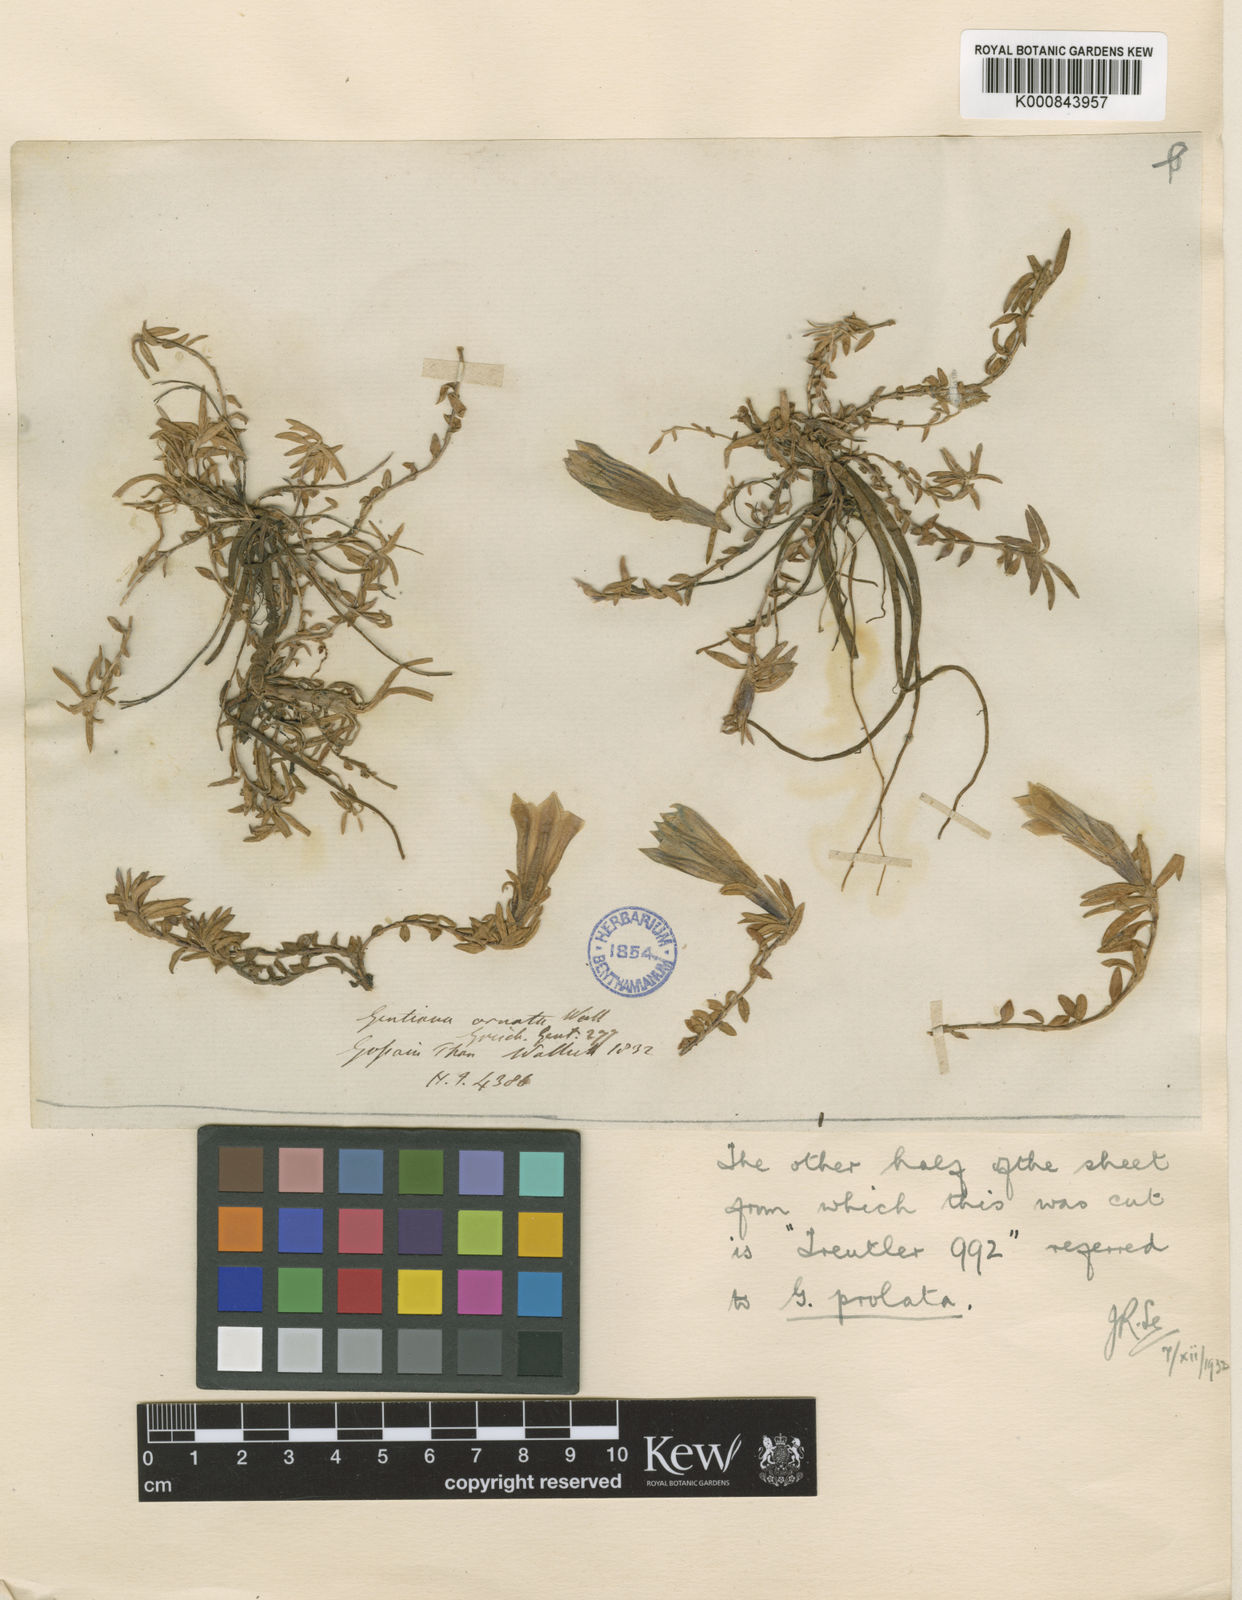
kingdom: Plantae
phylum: Tracheophyta
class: Magnoliopsida
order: Gentianales
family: Gentianaceae
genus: Gentiana
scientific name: Gentiana ornata
